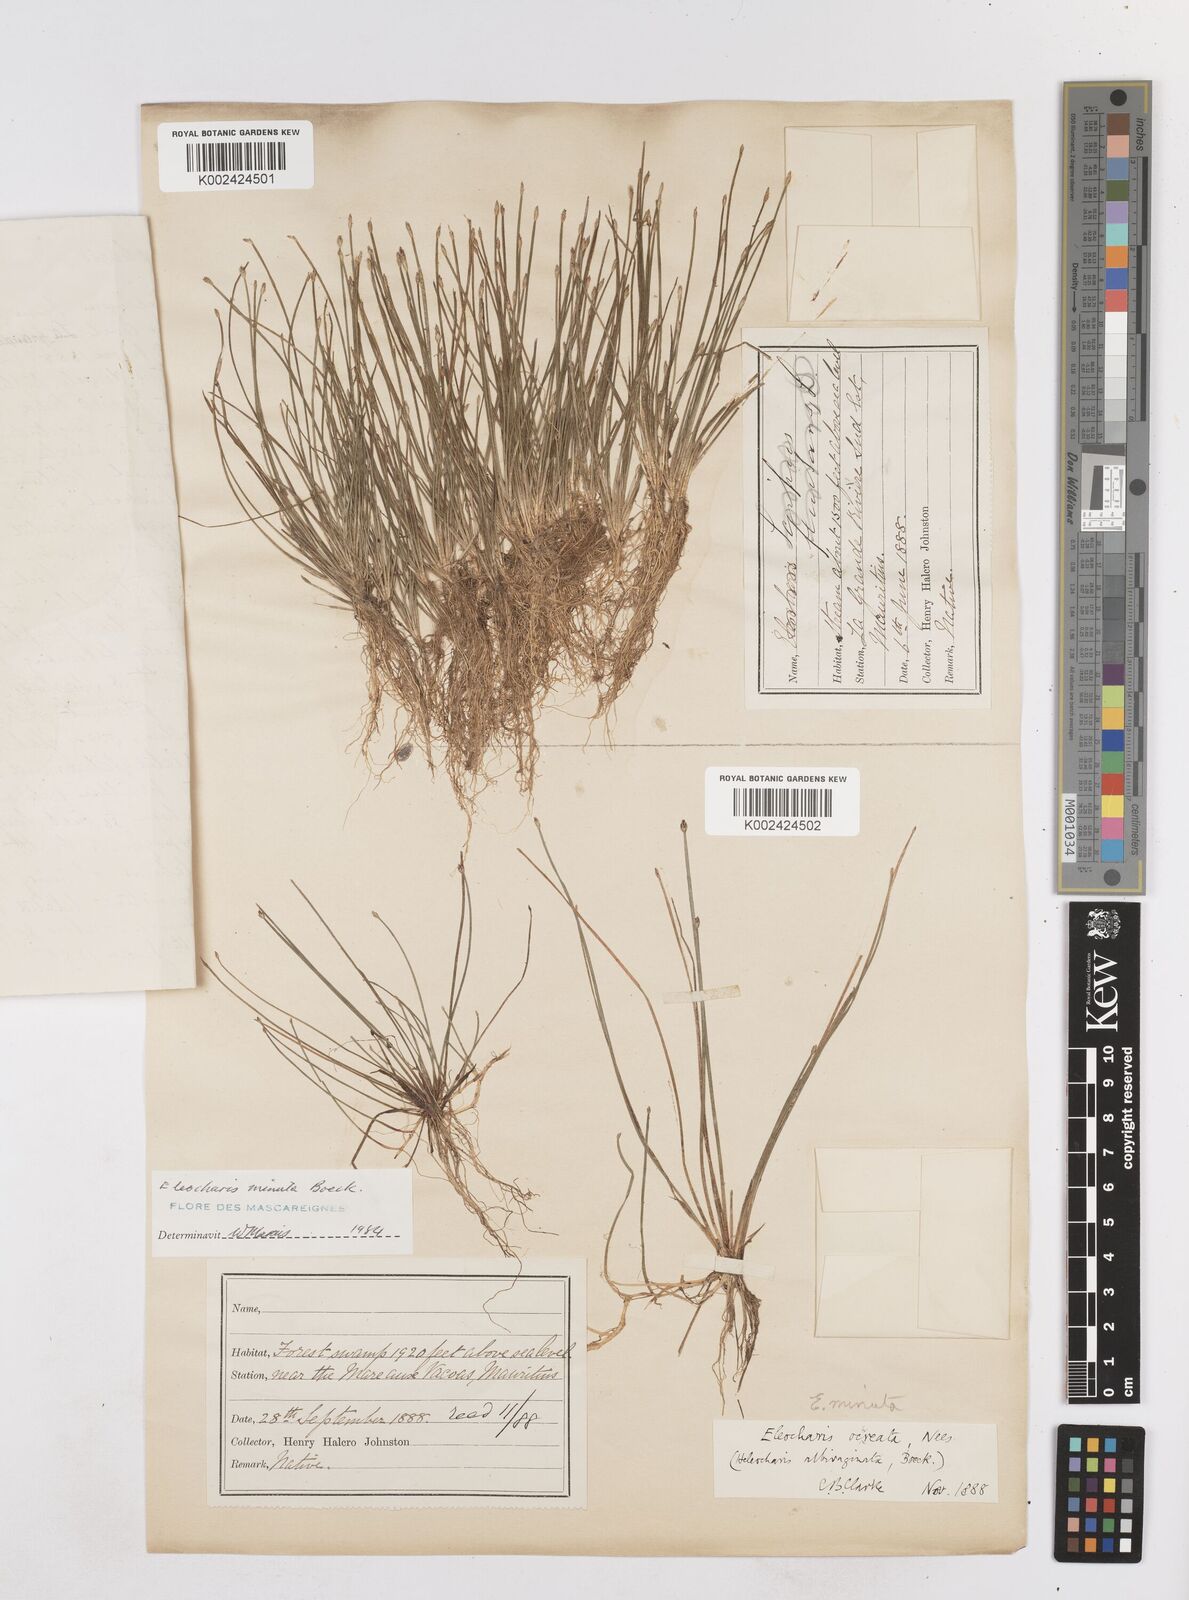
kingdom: Plantae
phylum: Tracheophyta
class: Liliopsida
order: Poales
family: Cyperaceae
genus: Eleocharis
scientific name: Eleocharis minuta
